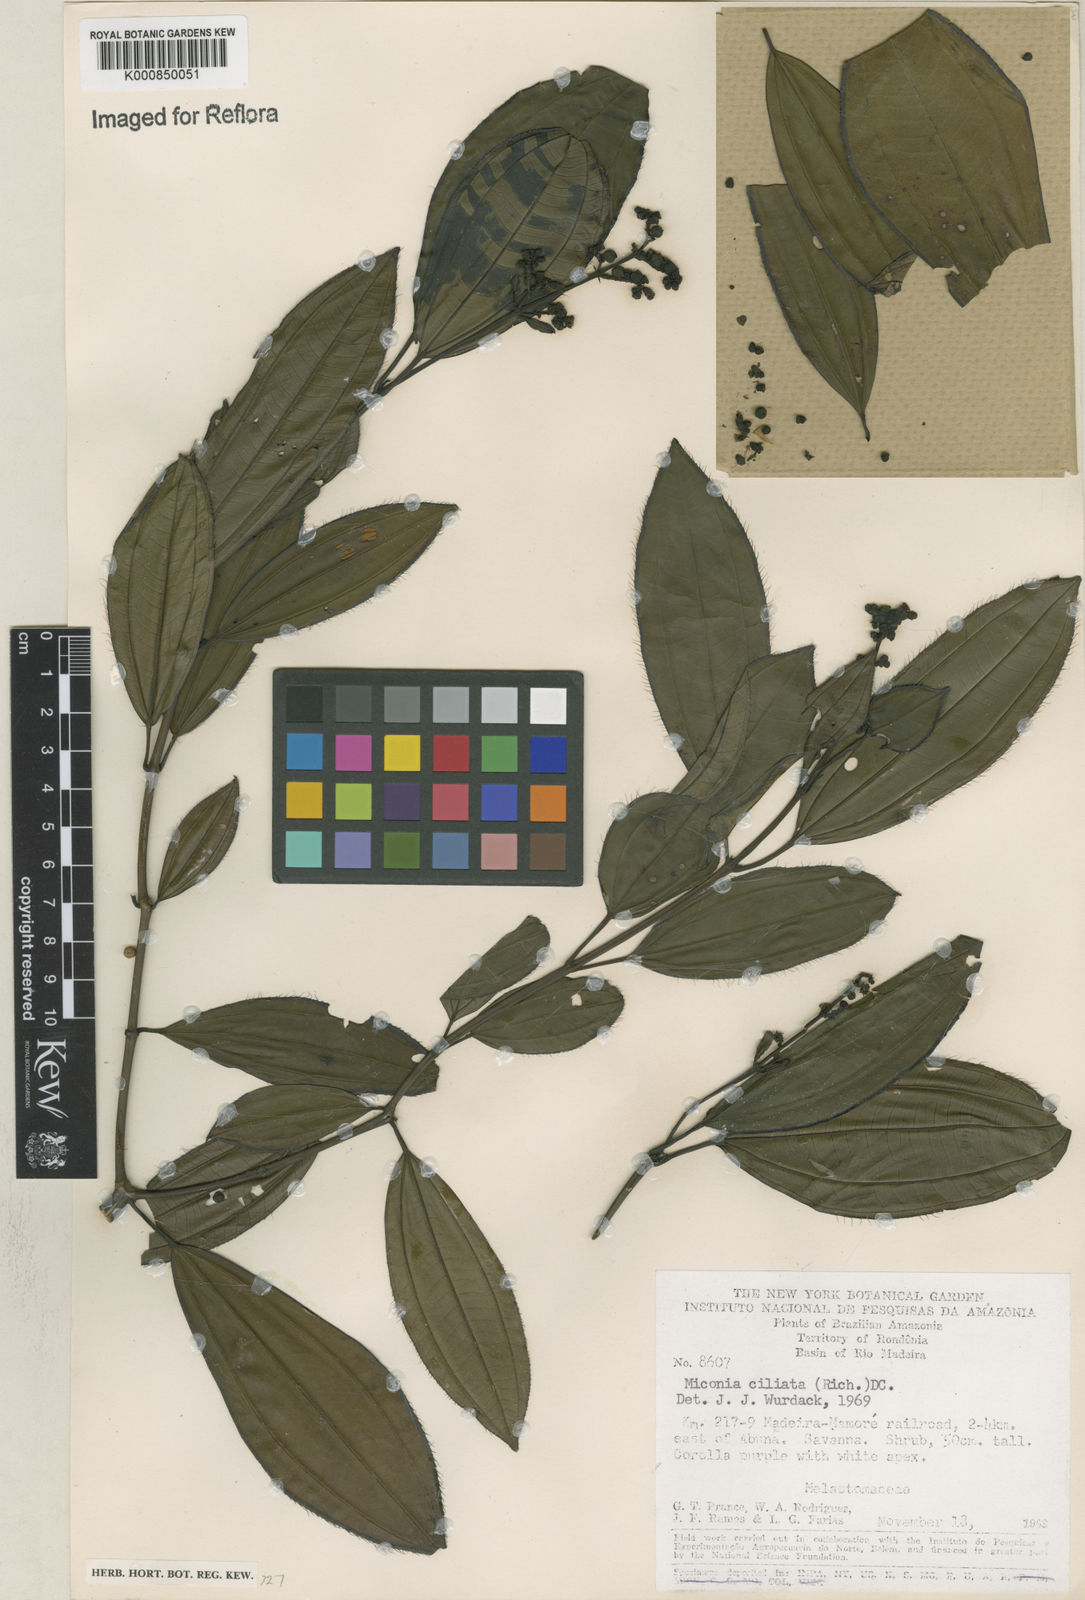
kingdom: Plantae
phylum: Tracheophyta
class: Magnoliopsida
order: Myrtales
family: Melastomataceae
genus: Miconia
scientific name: Miconia ciliata
